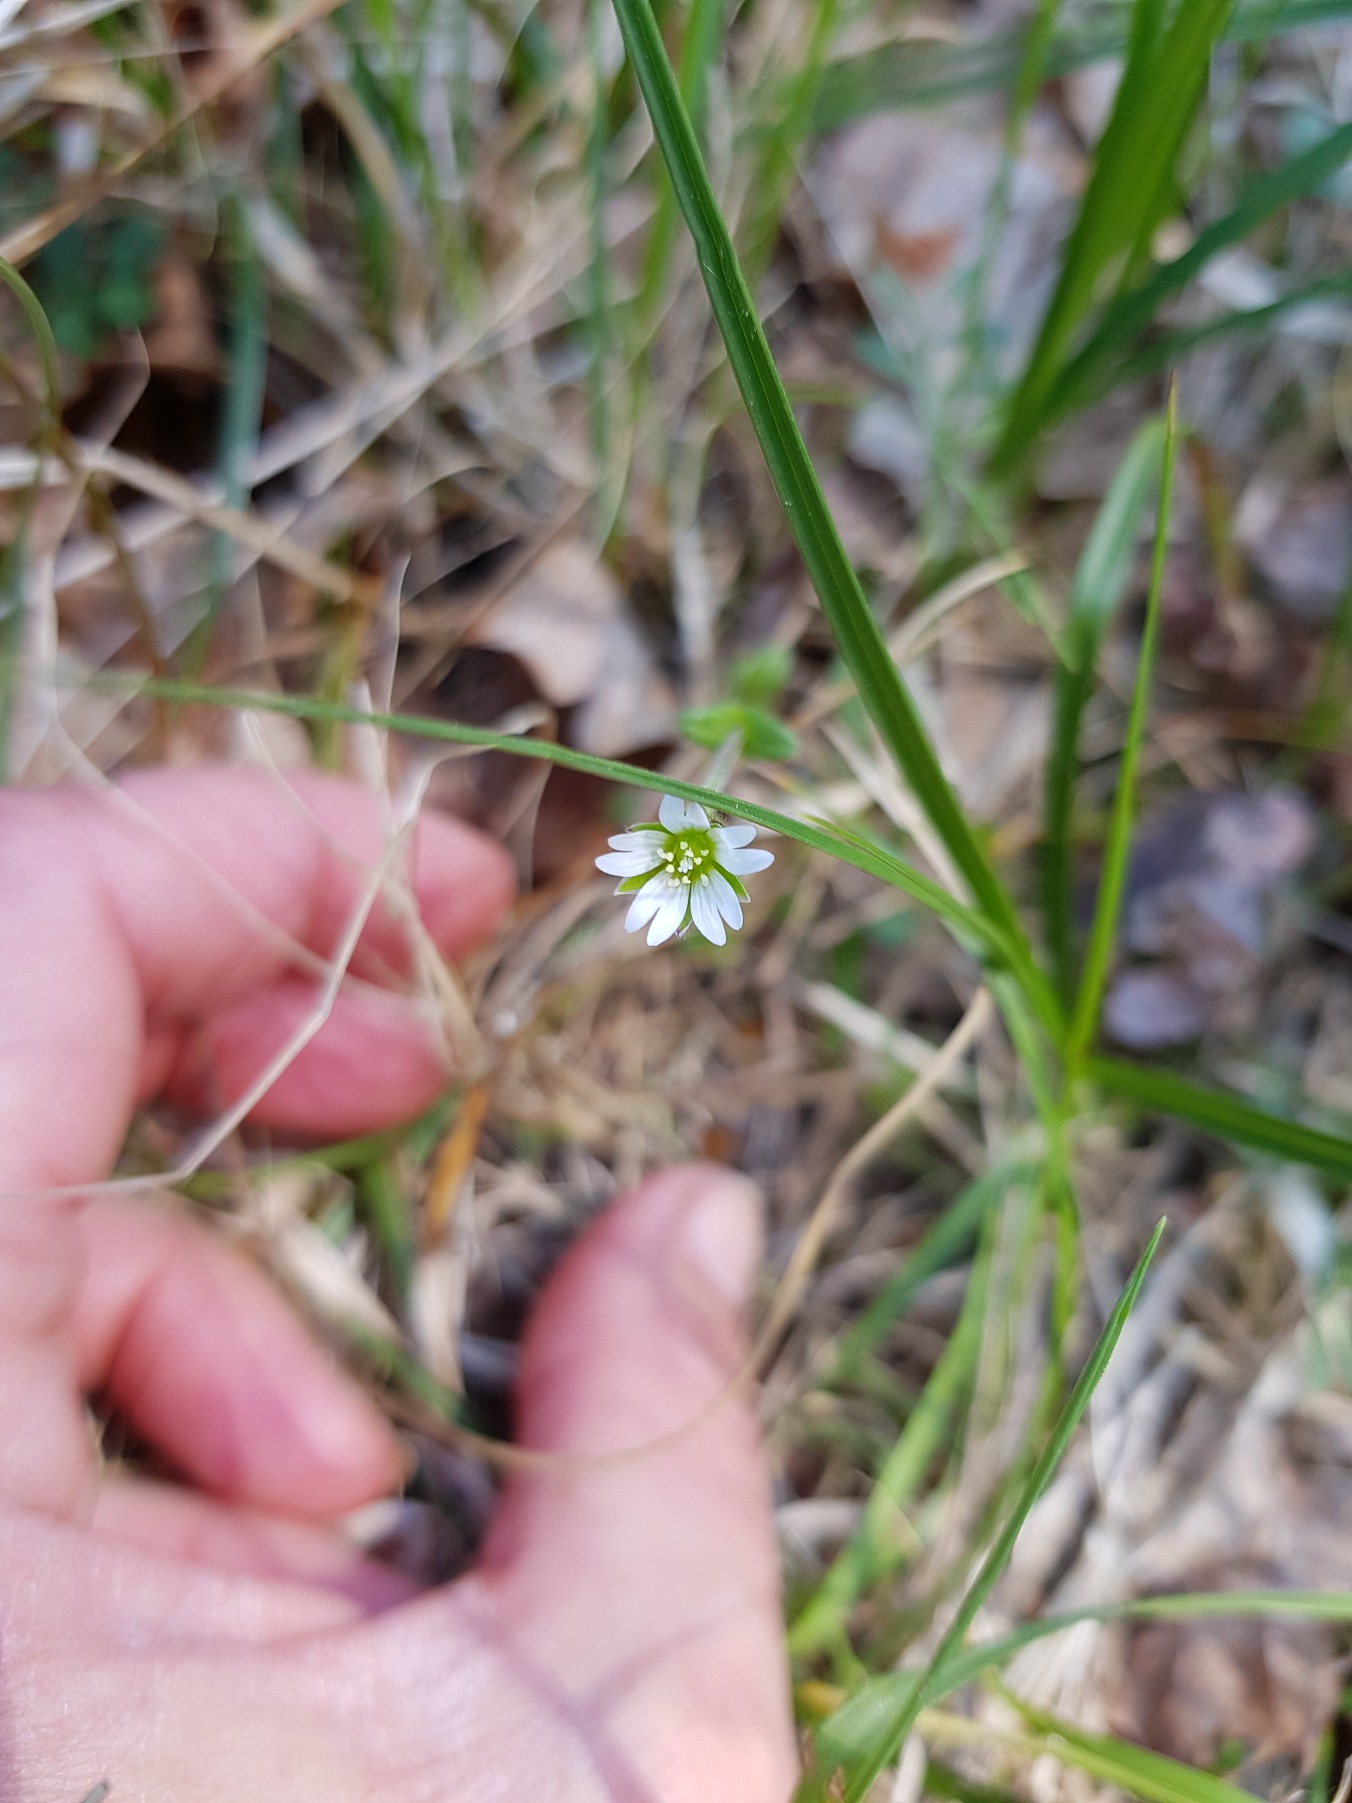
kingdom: Plantae
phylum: Tracheophyta
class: Magnoliopsida
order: Caryophyllales
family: Caryophyllaceae
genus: Cerastium
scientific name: Cerastium fontanum
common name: Almindelig hønsetarm
